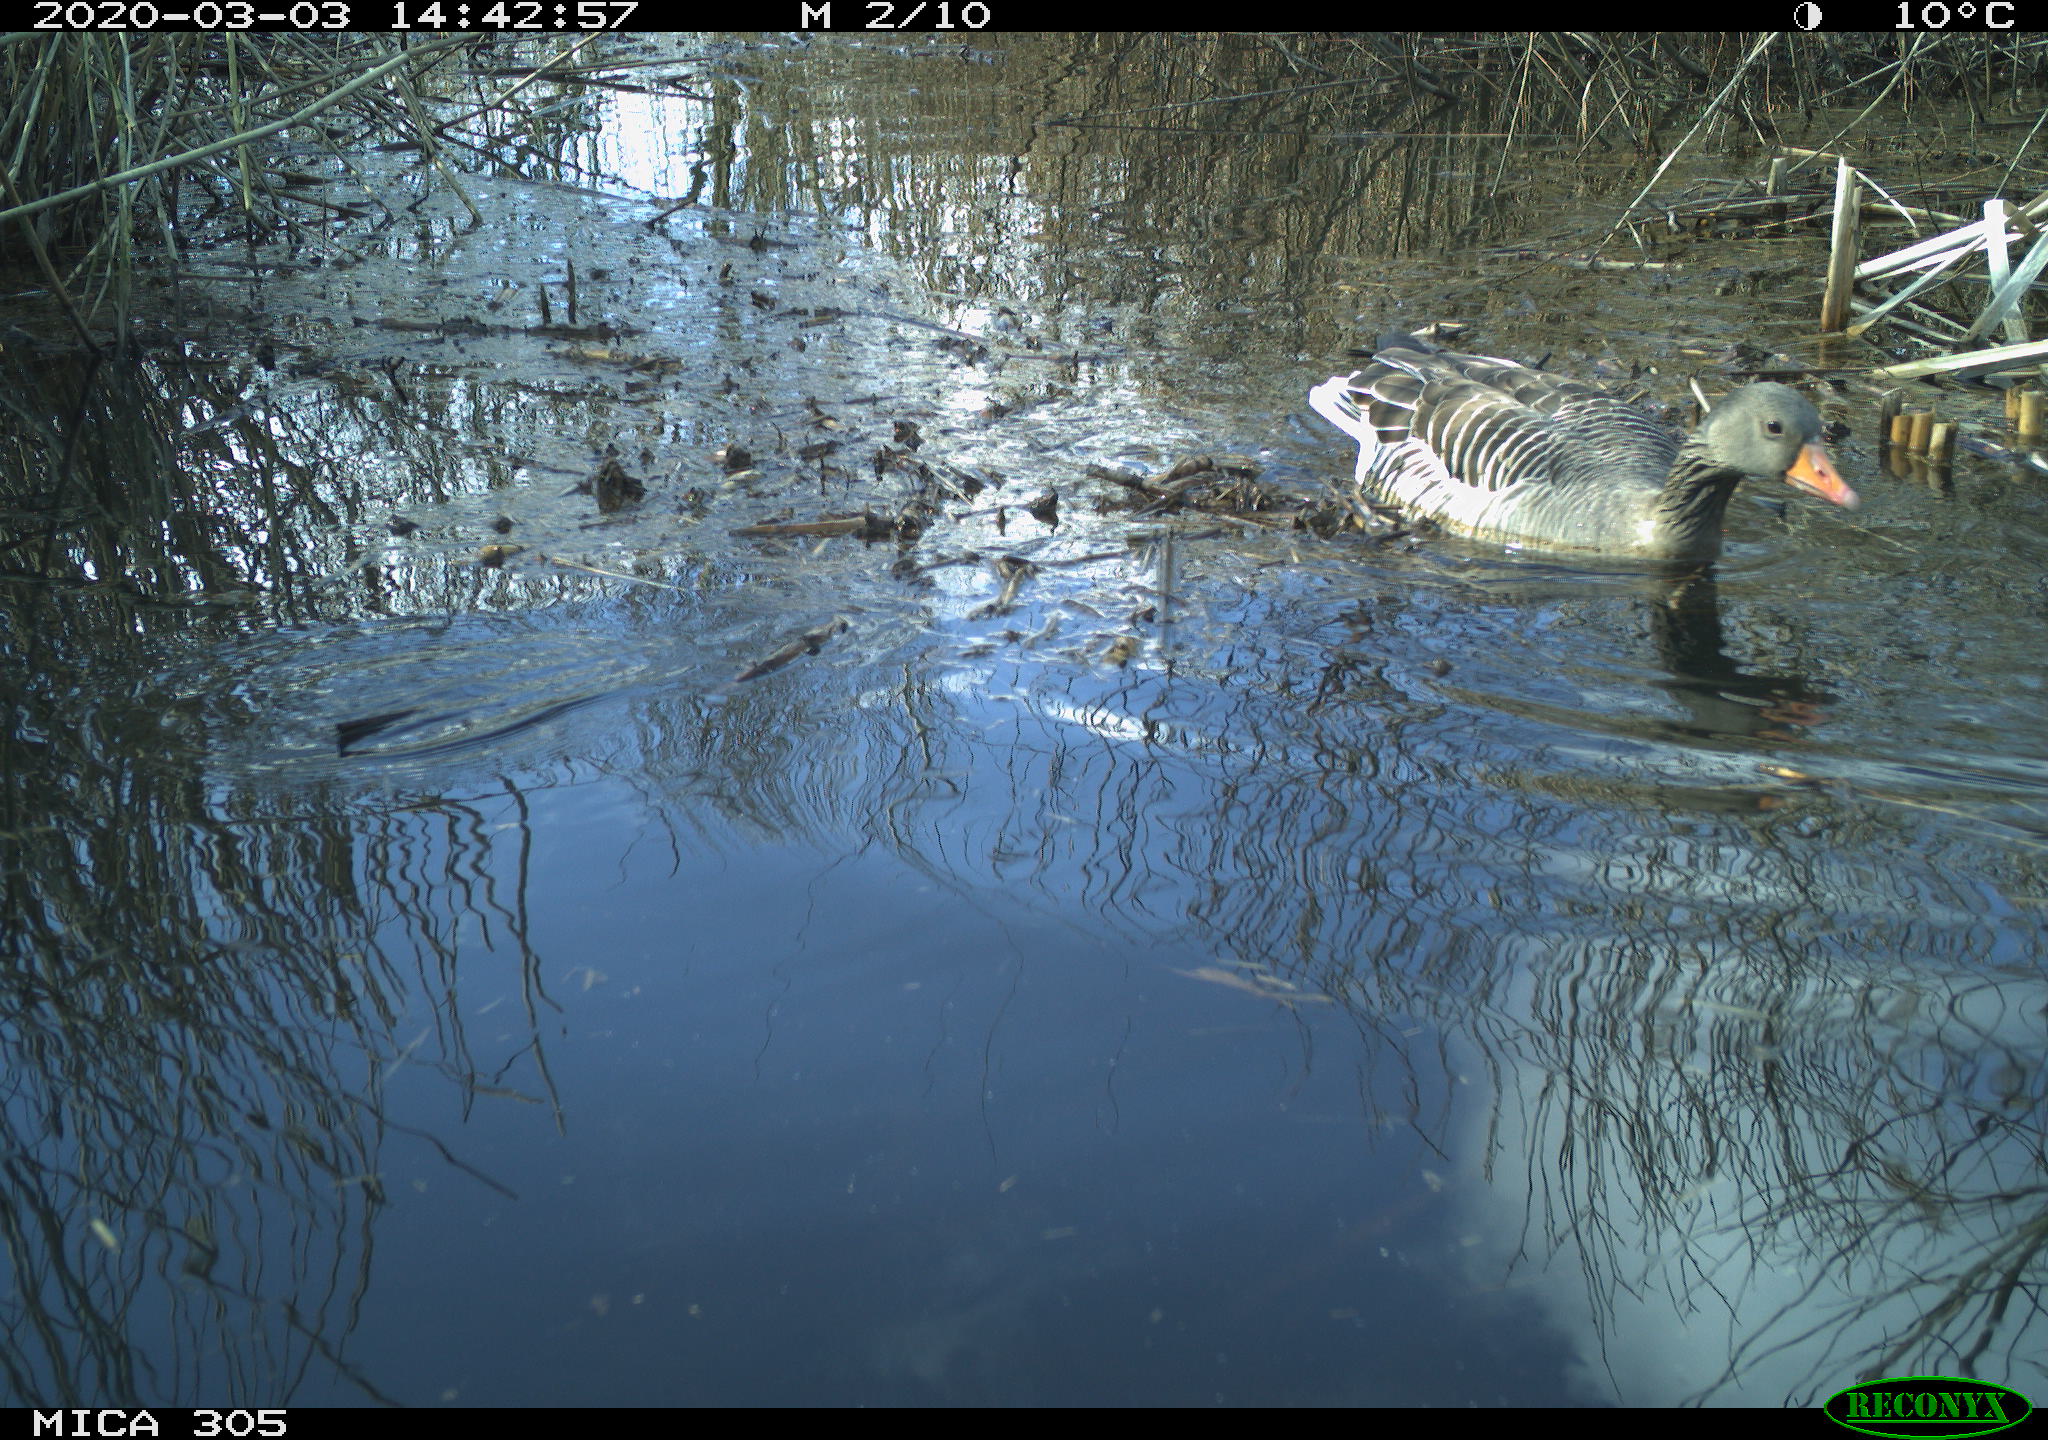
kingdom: Animalia
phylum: Chordata
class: Aves
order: Anseriformes
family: Anatidae
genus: Anser
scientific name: Anser anser
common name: Greylag goose
